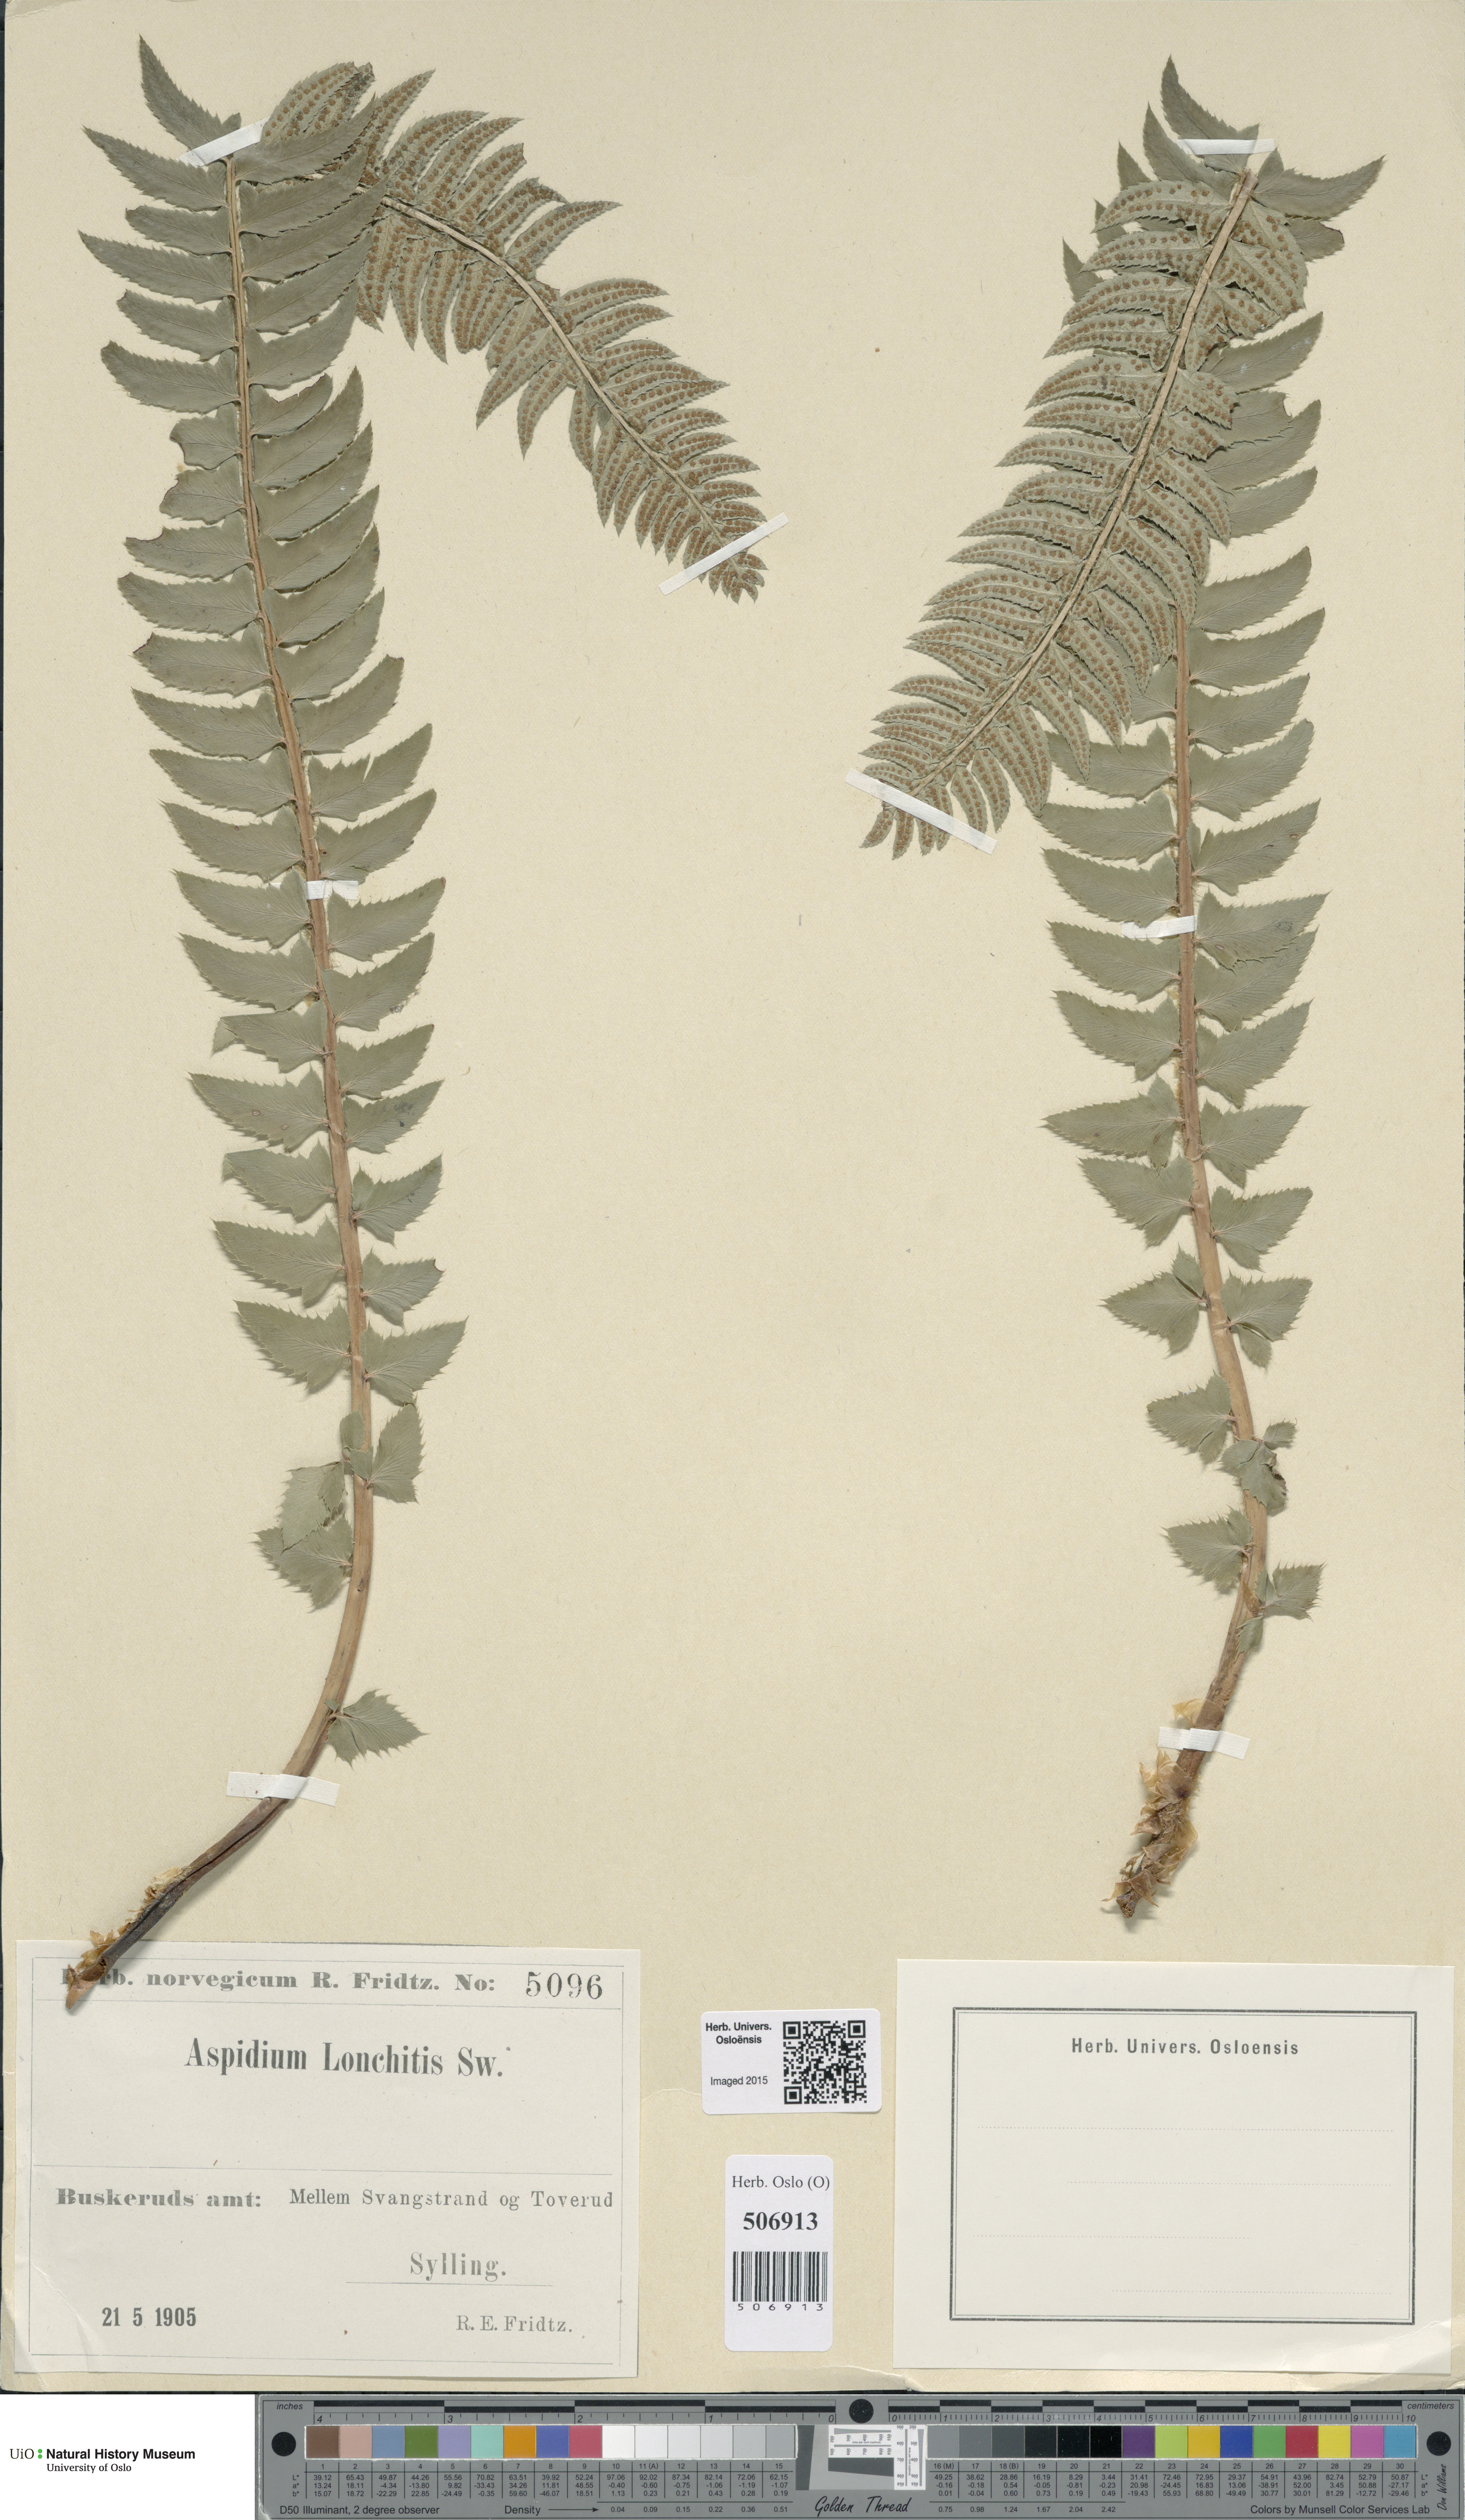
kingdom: Plantae
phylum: Tracheophyta
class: Polypodiopsida
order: Polypodiales
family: Dryopteridaceae
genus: Polystichum
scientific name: Polystichum lonchitis
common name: Holly fern
